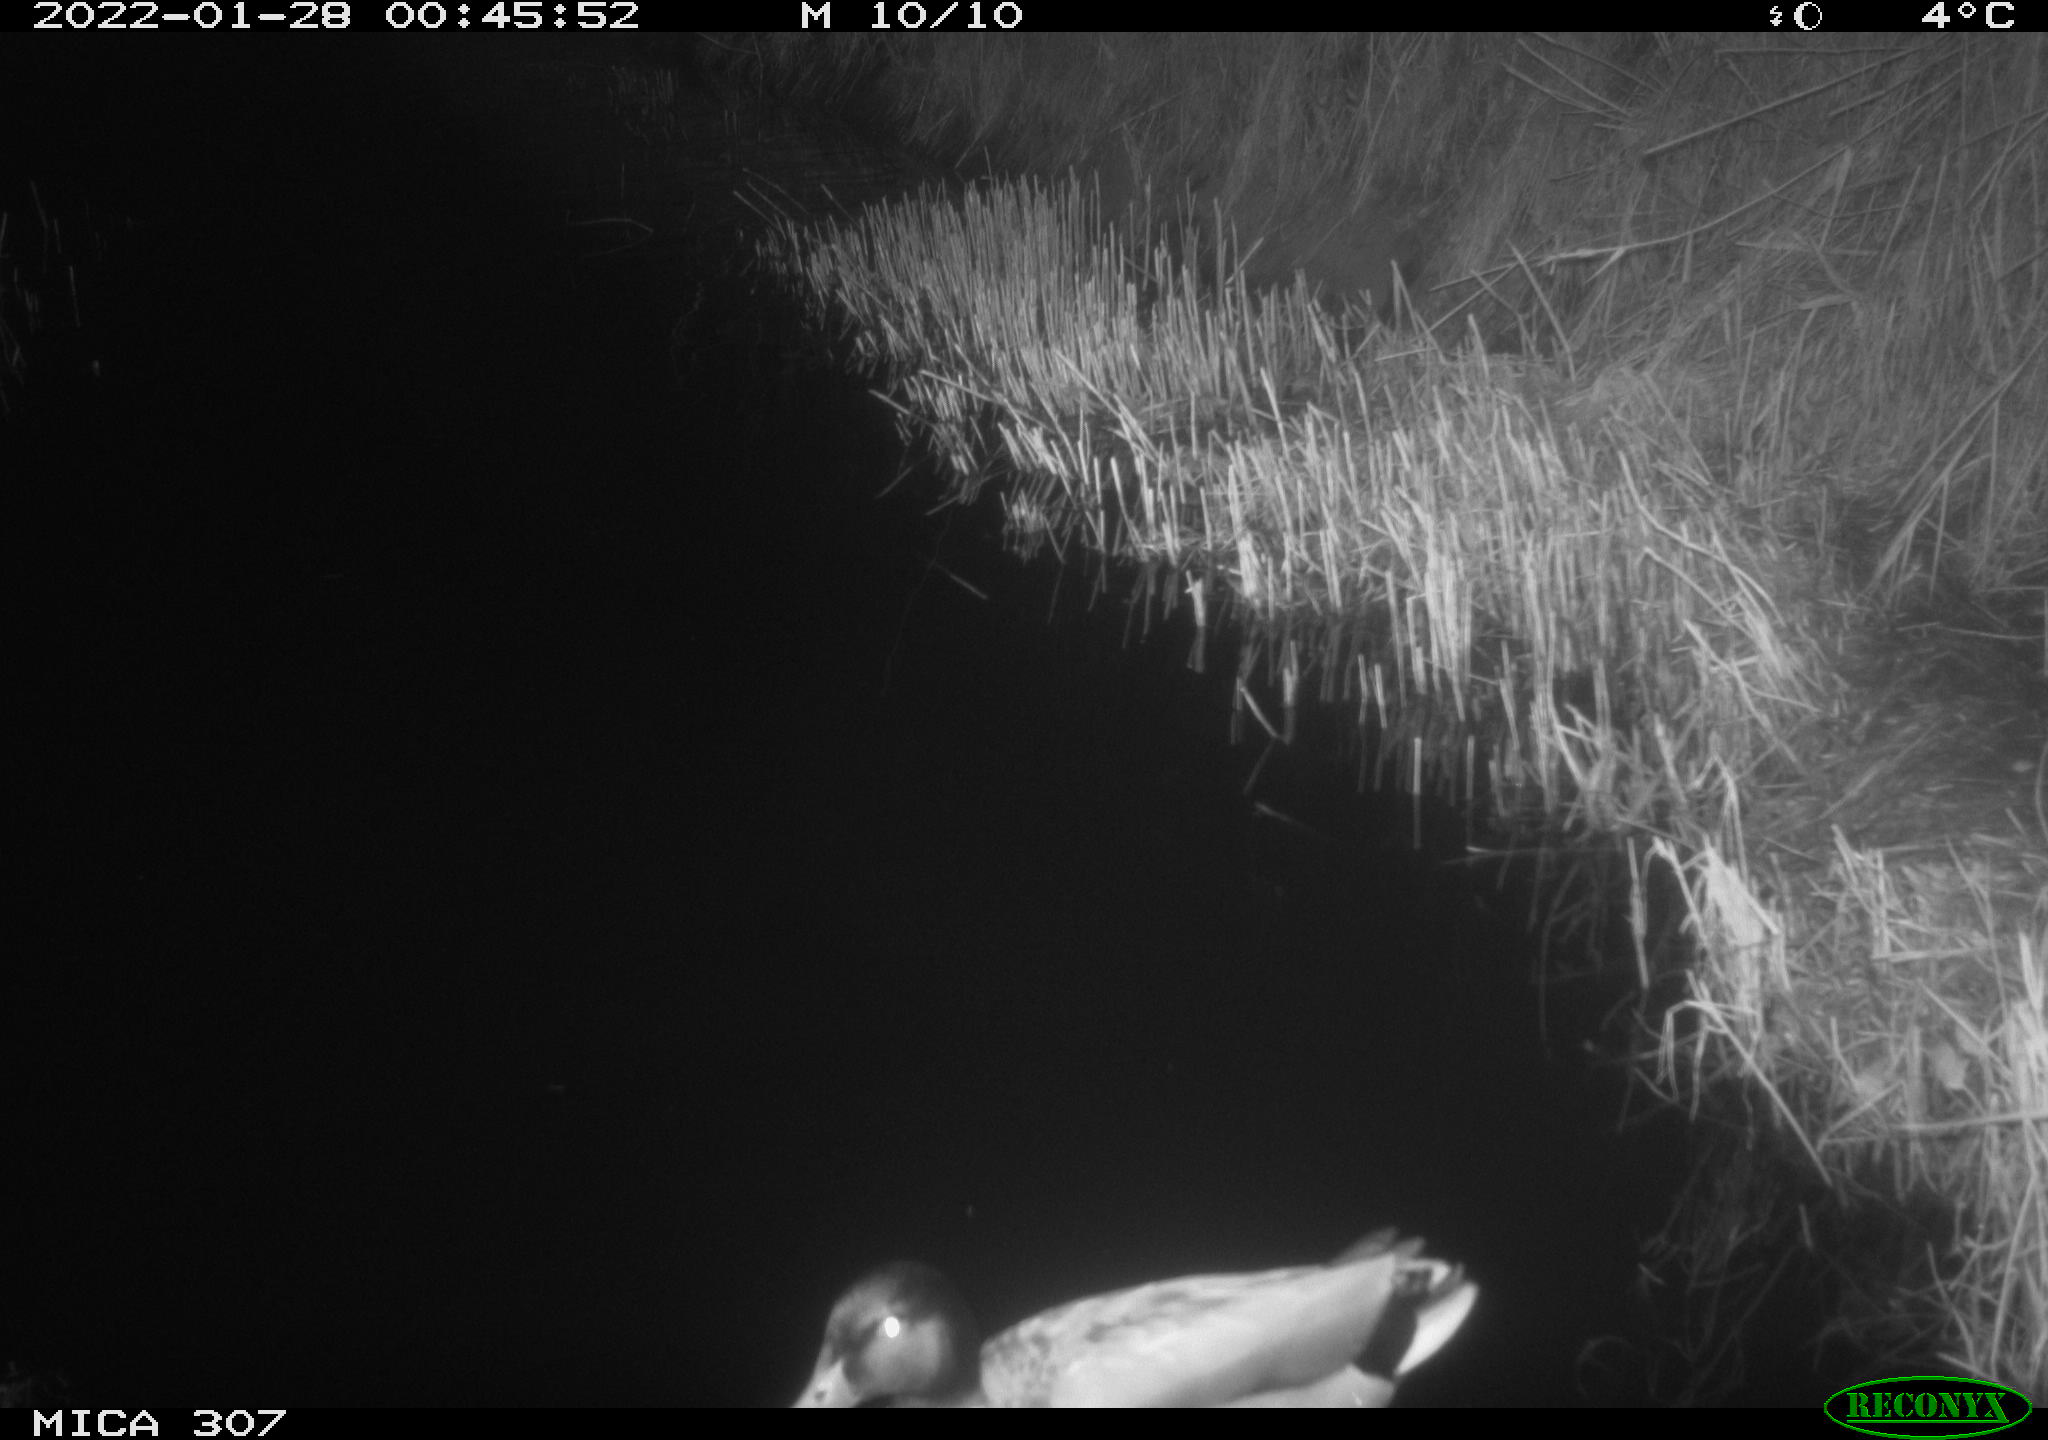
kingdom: Animalia
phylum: Chordata
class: Aves
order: Anseriformes
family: Anatidae
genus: Anas
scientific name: Anas
